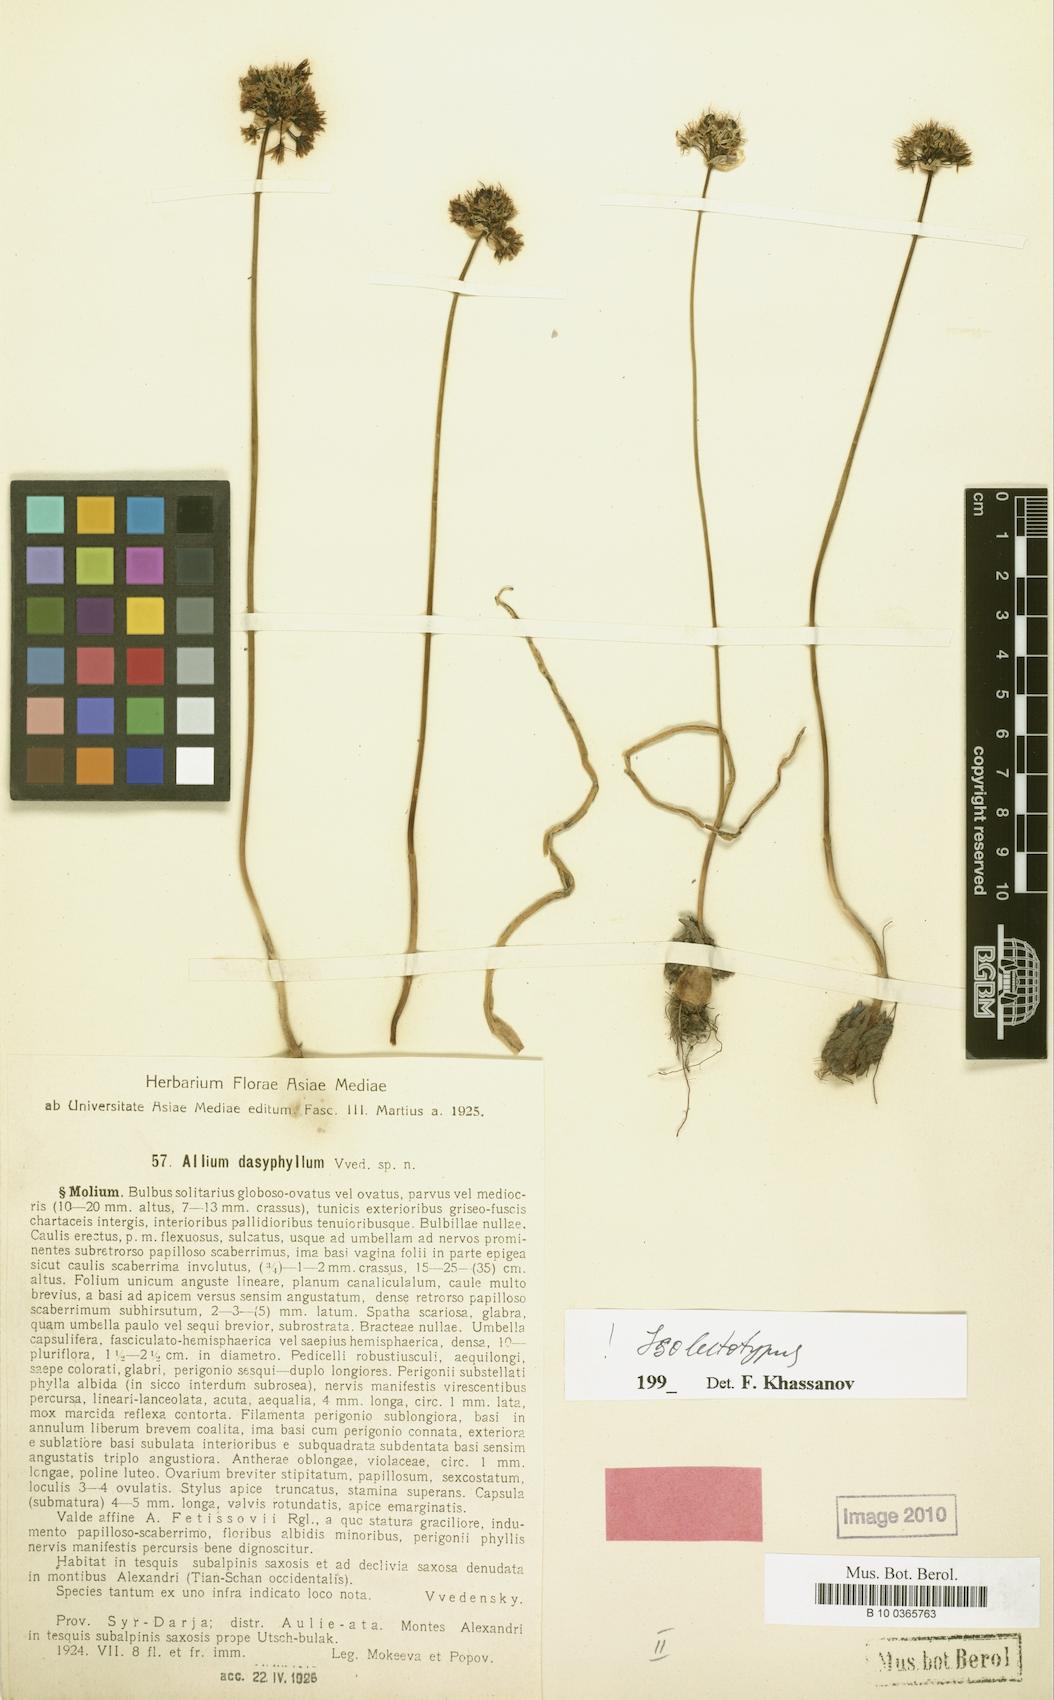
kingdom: Plantae
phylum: Tracheophyta
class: Liliopsida
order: Asparagales
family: Amaryllidaceae
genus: Allium
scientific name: Allium dasyphyllum
